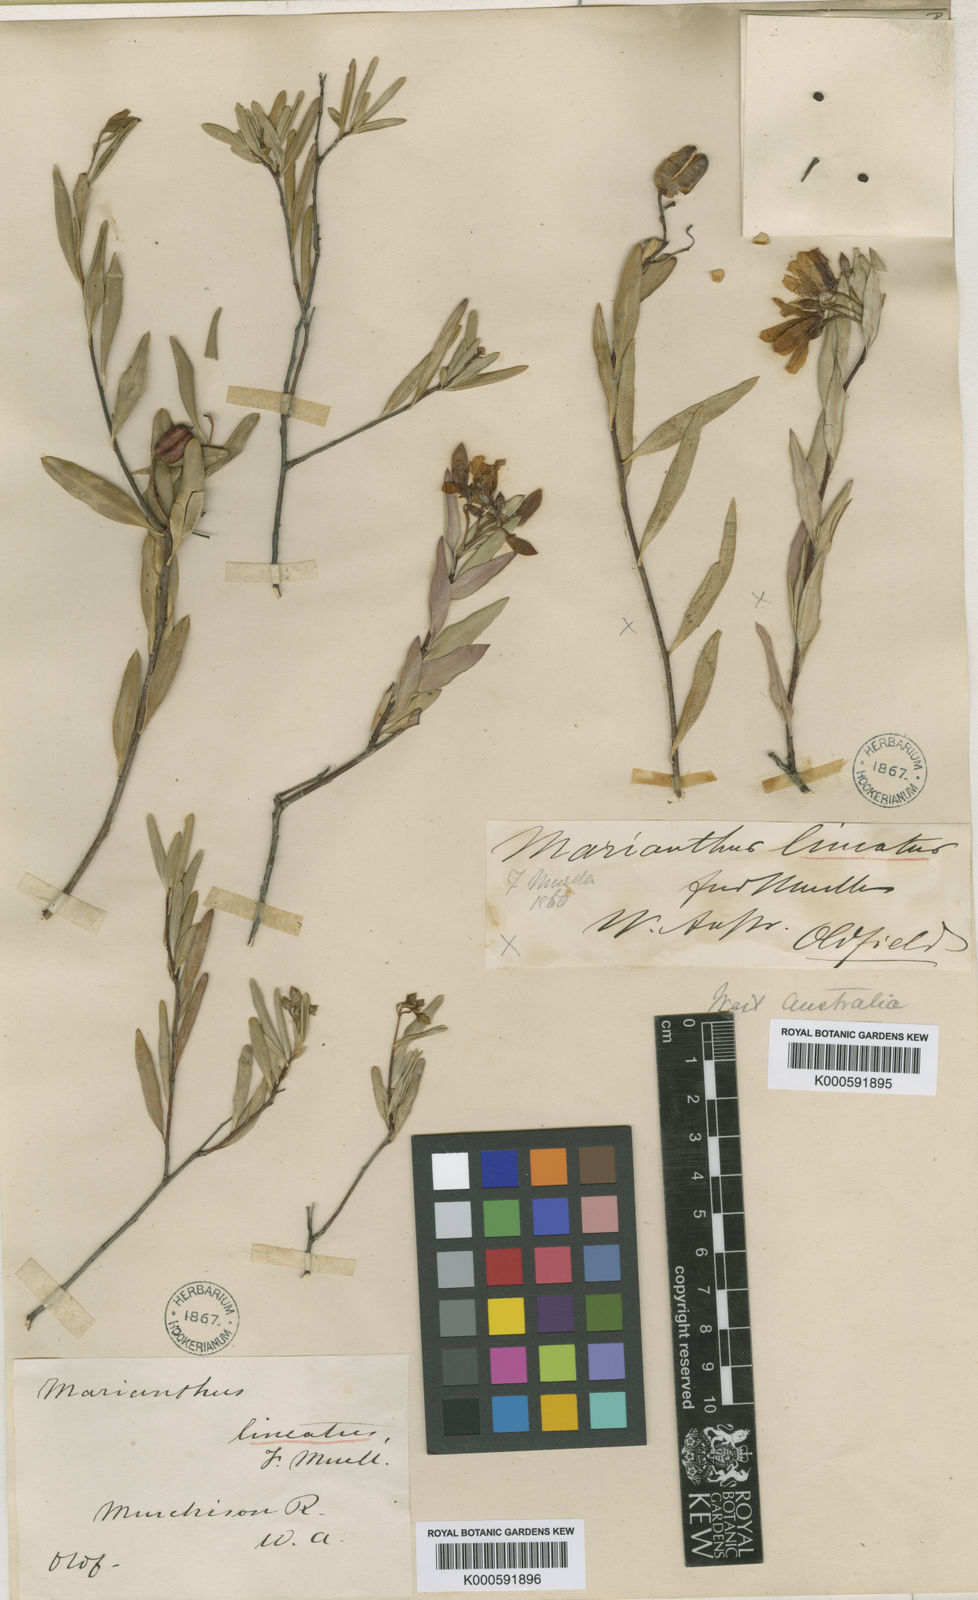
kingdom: Plantae
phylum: Tracheophyta
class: Magnoliopsida
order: Apiales
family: Pittosporaceae
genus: Marianthus
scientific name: Marianthus bicolor
